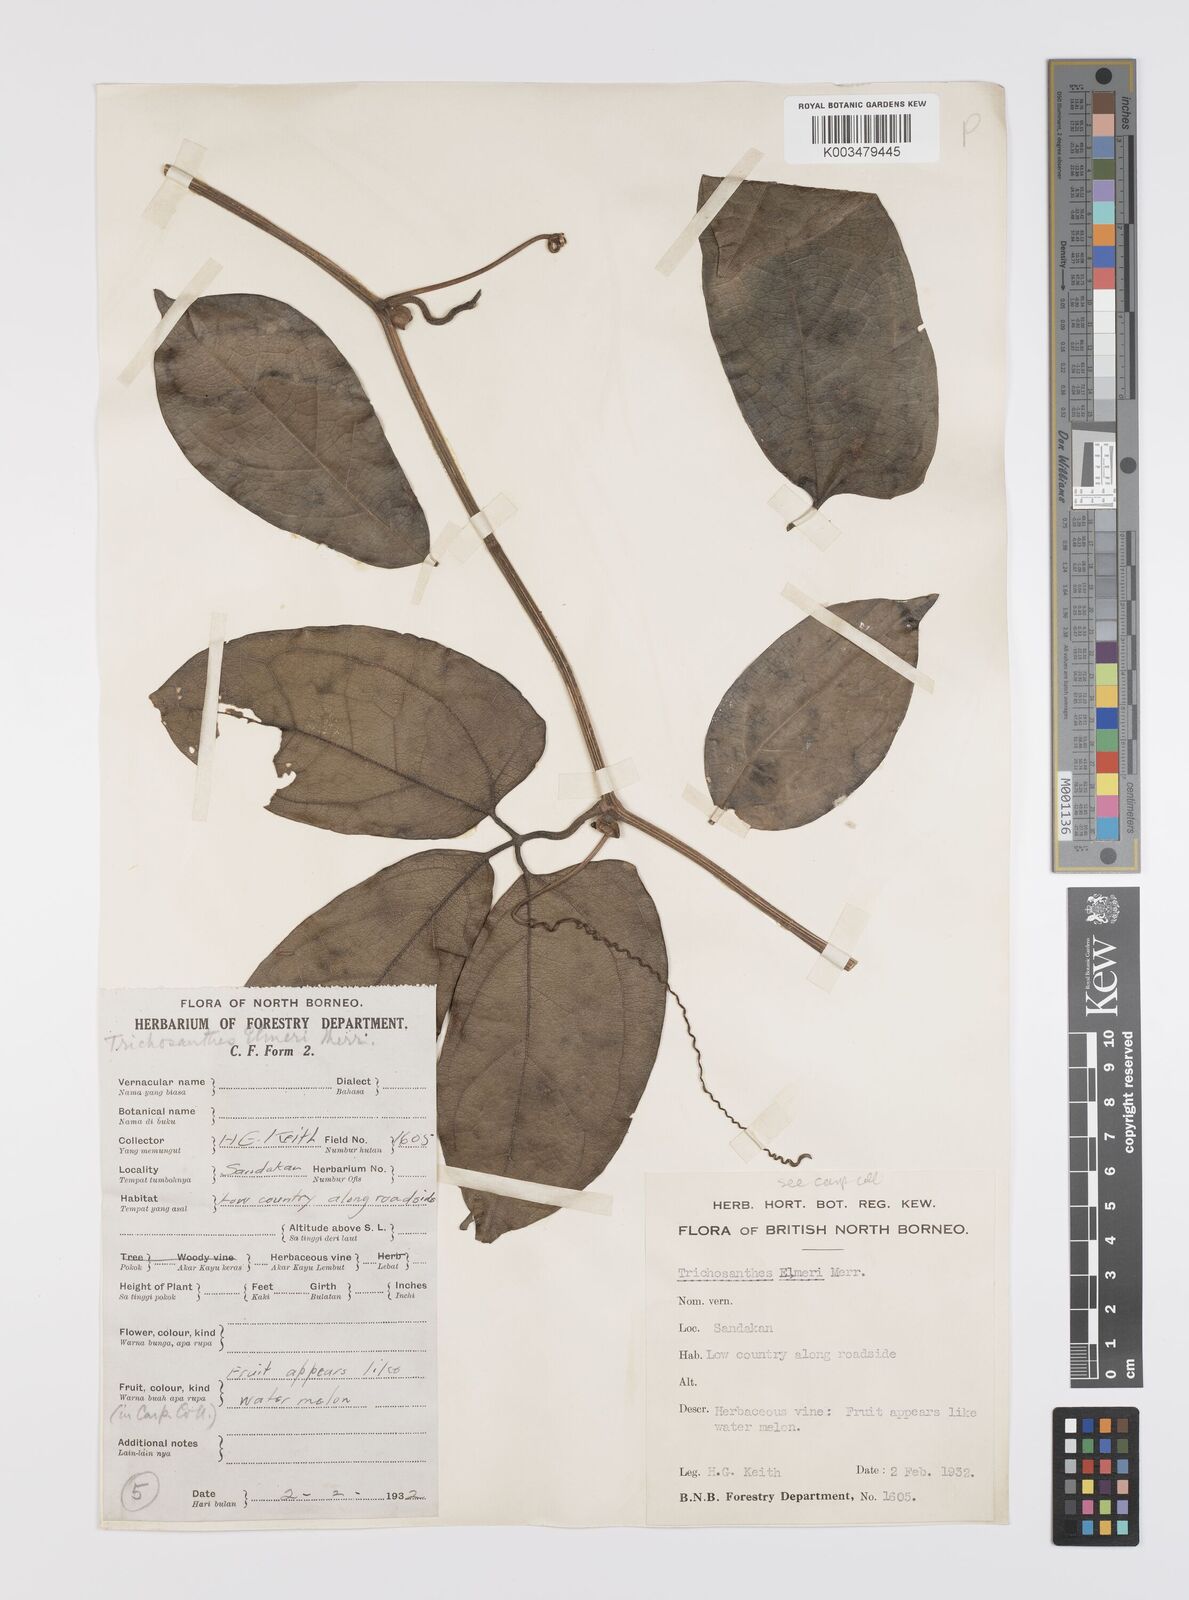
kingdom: Plantae
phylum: Tracheophyta
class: Magnoliopsida
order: Cucurbitales
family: Cucurbitaceae
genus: Trichosanthes
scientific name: Trichosanthes elmeri
